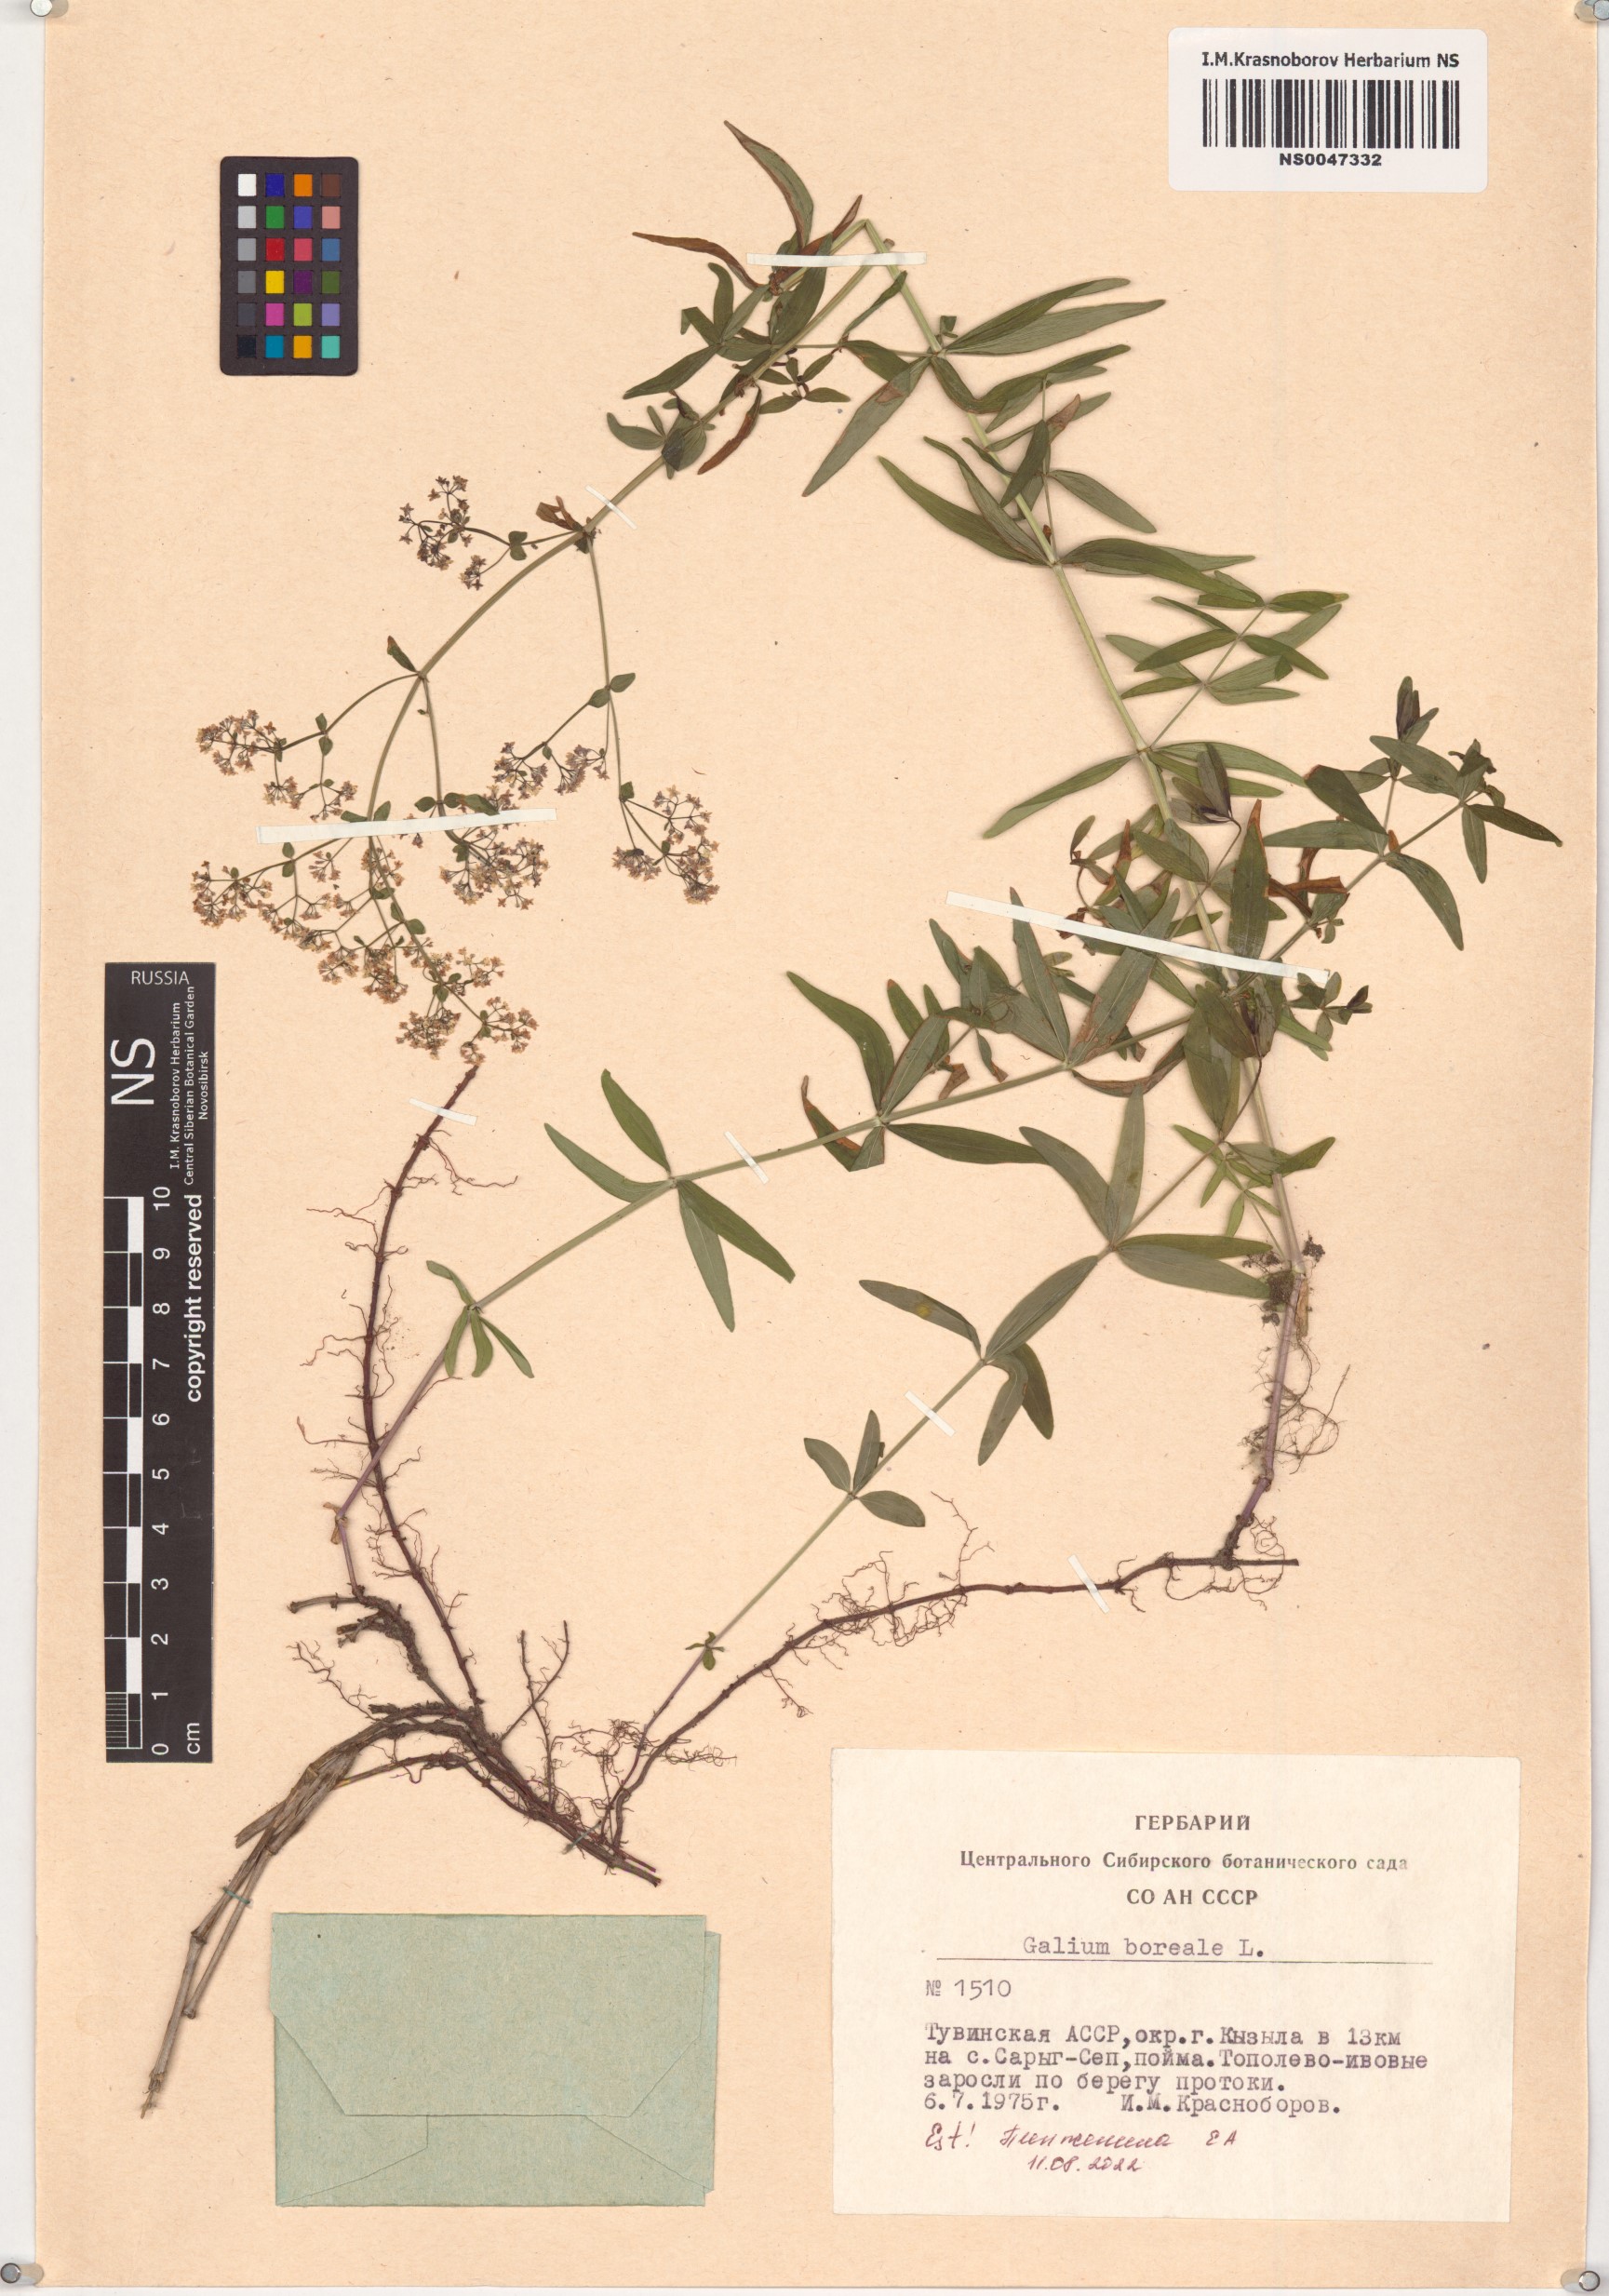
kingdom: Plantae
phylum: Tracheophyta
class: Magnoliopsida
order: Gentianales
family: Rubiaceae
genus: Galium
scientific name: Galium boreale
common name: Northern bedstraw
